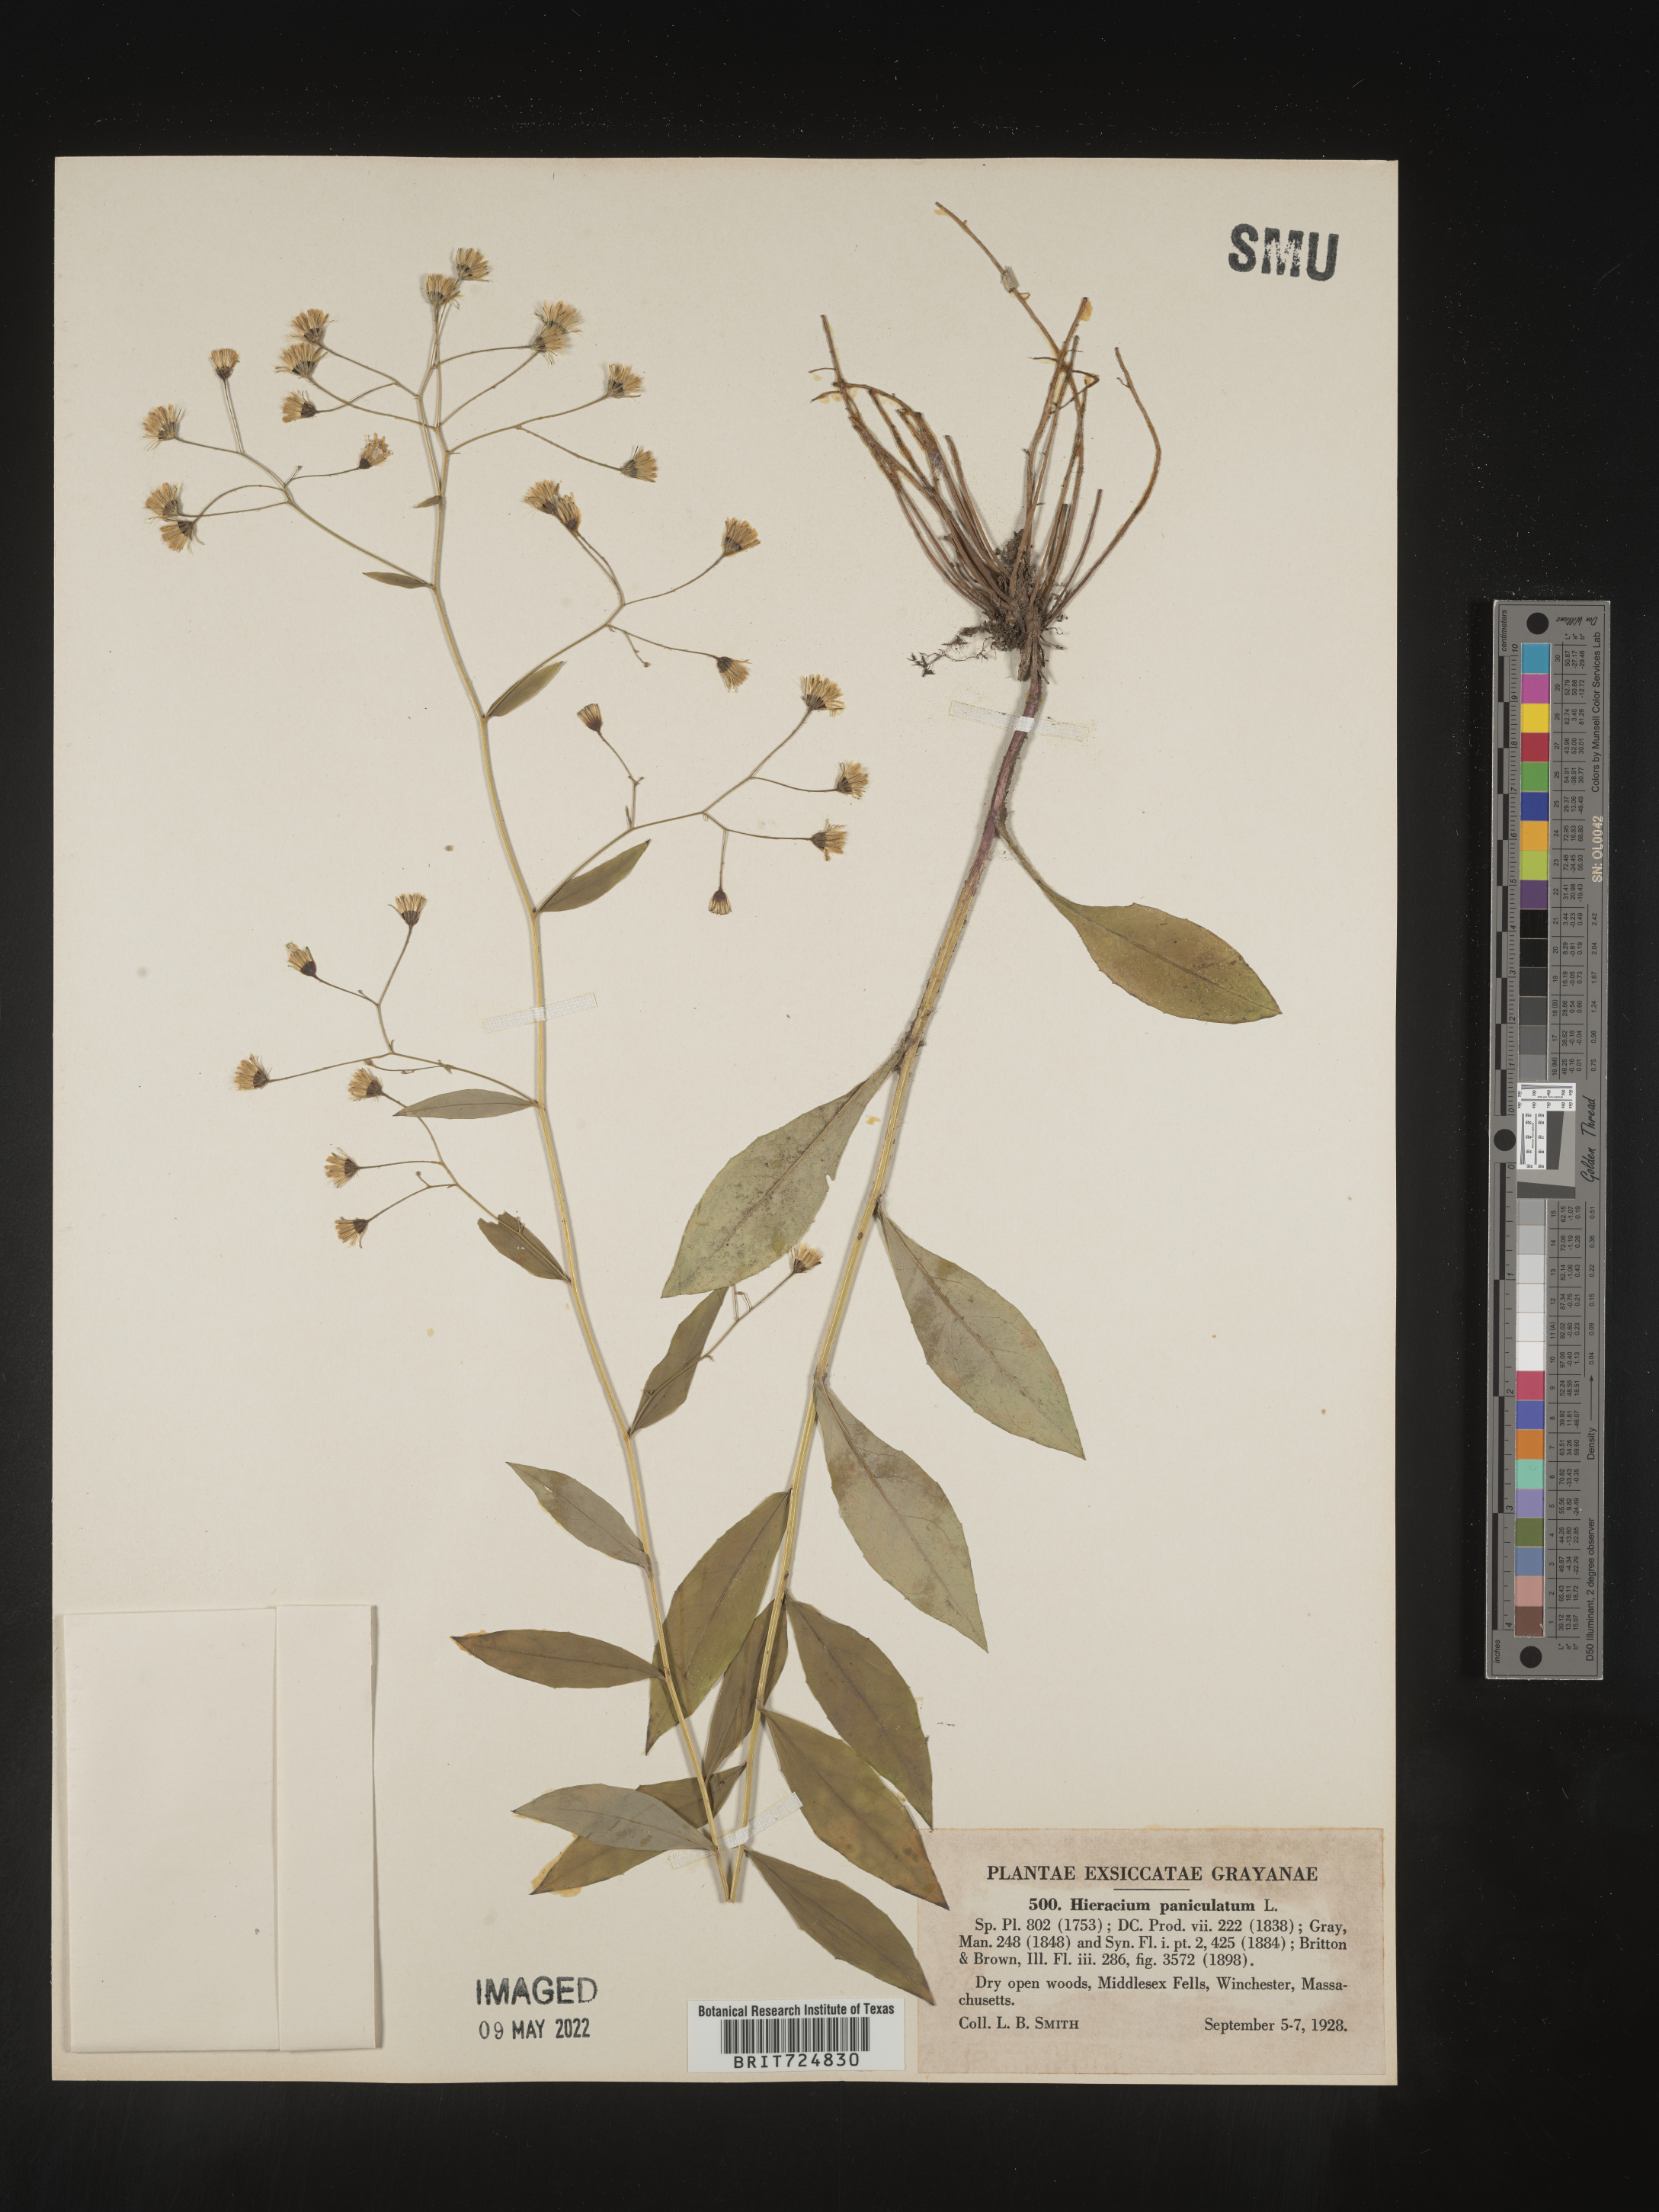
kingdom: Plantae
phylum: Tracheophyta
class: Magnoliopsida
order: Asterales
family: Asteraceae
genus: Hieracium
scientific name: Hieracium paniculatum
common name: Allegheny hawkweed
